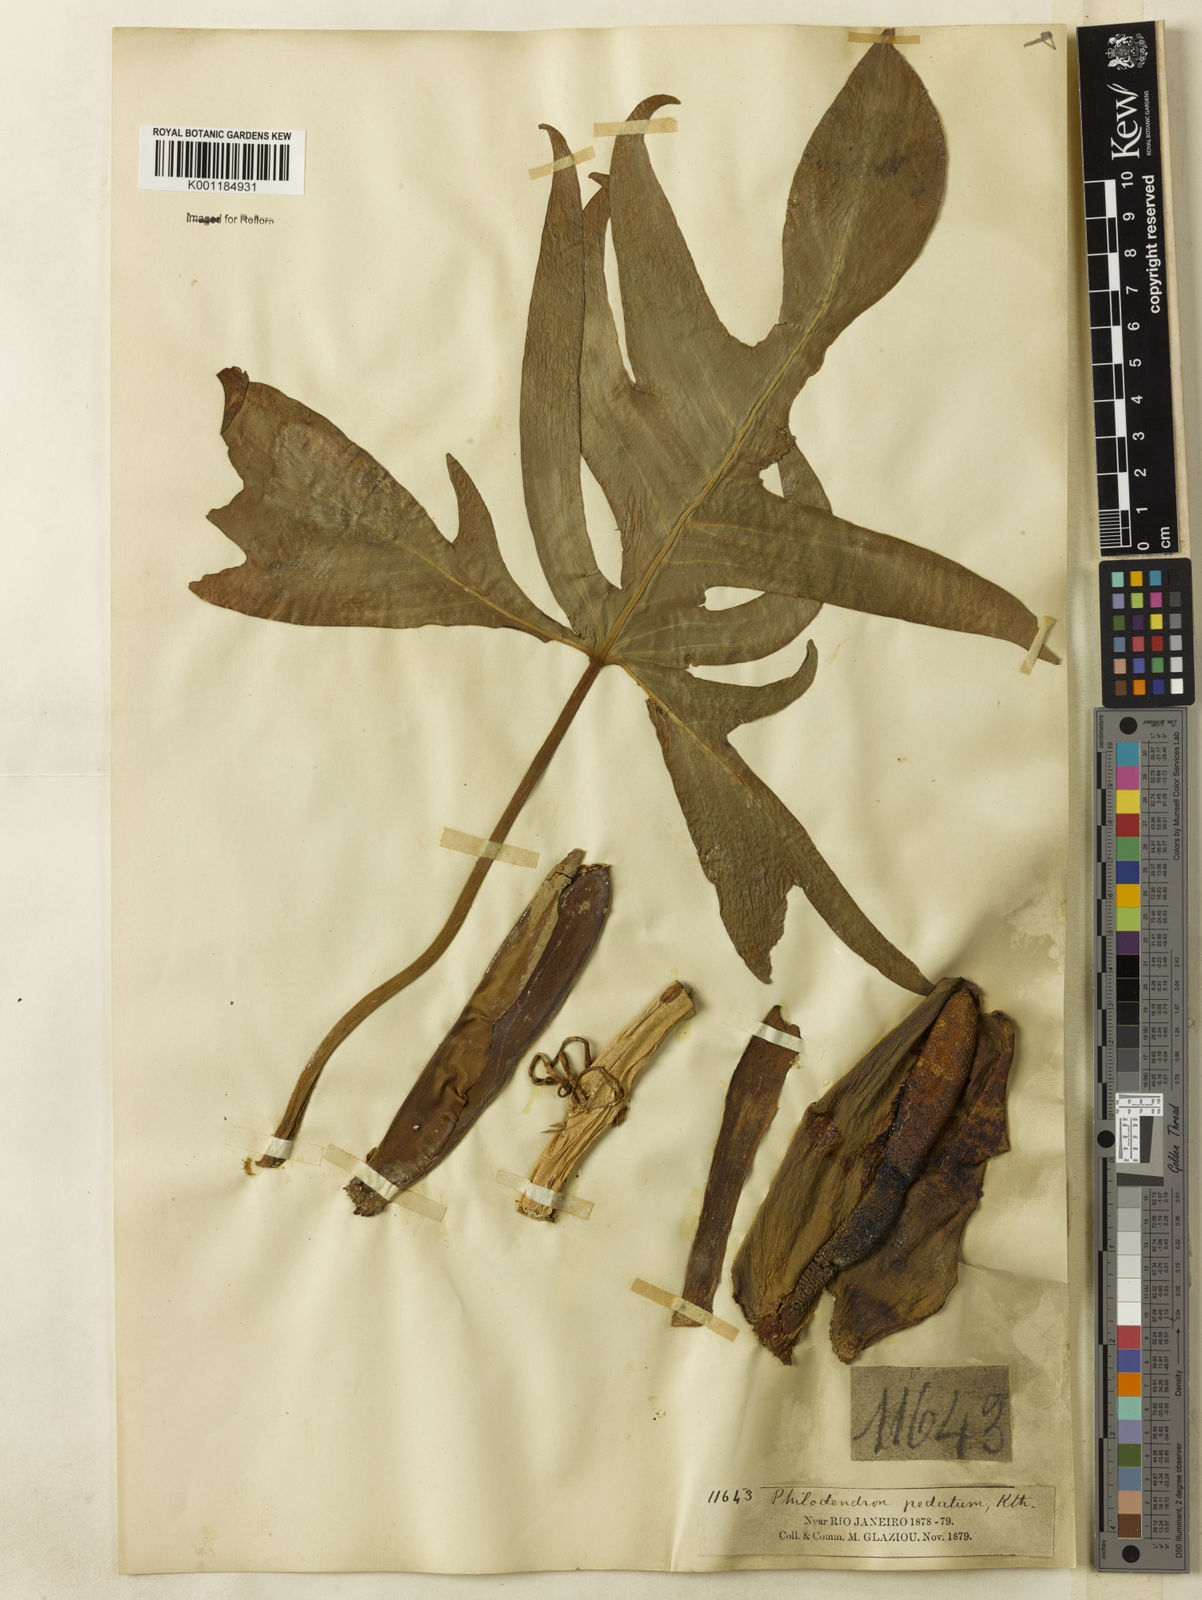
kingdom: Plantae
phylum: Tracheophyta
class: Liliopsida
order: Alismatales
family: Araceae
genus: Philodendron
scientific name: Philodendron pedatum
